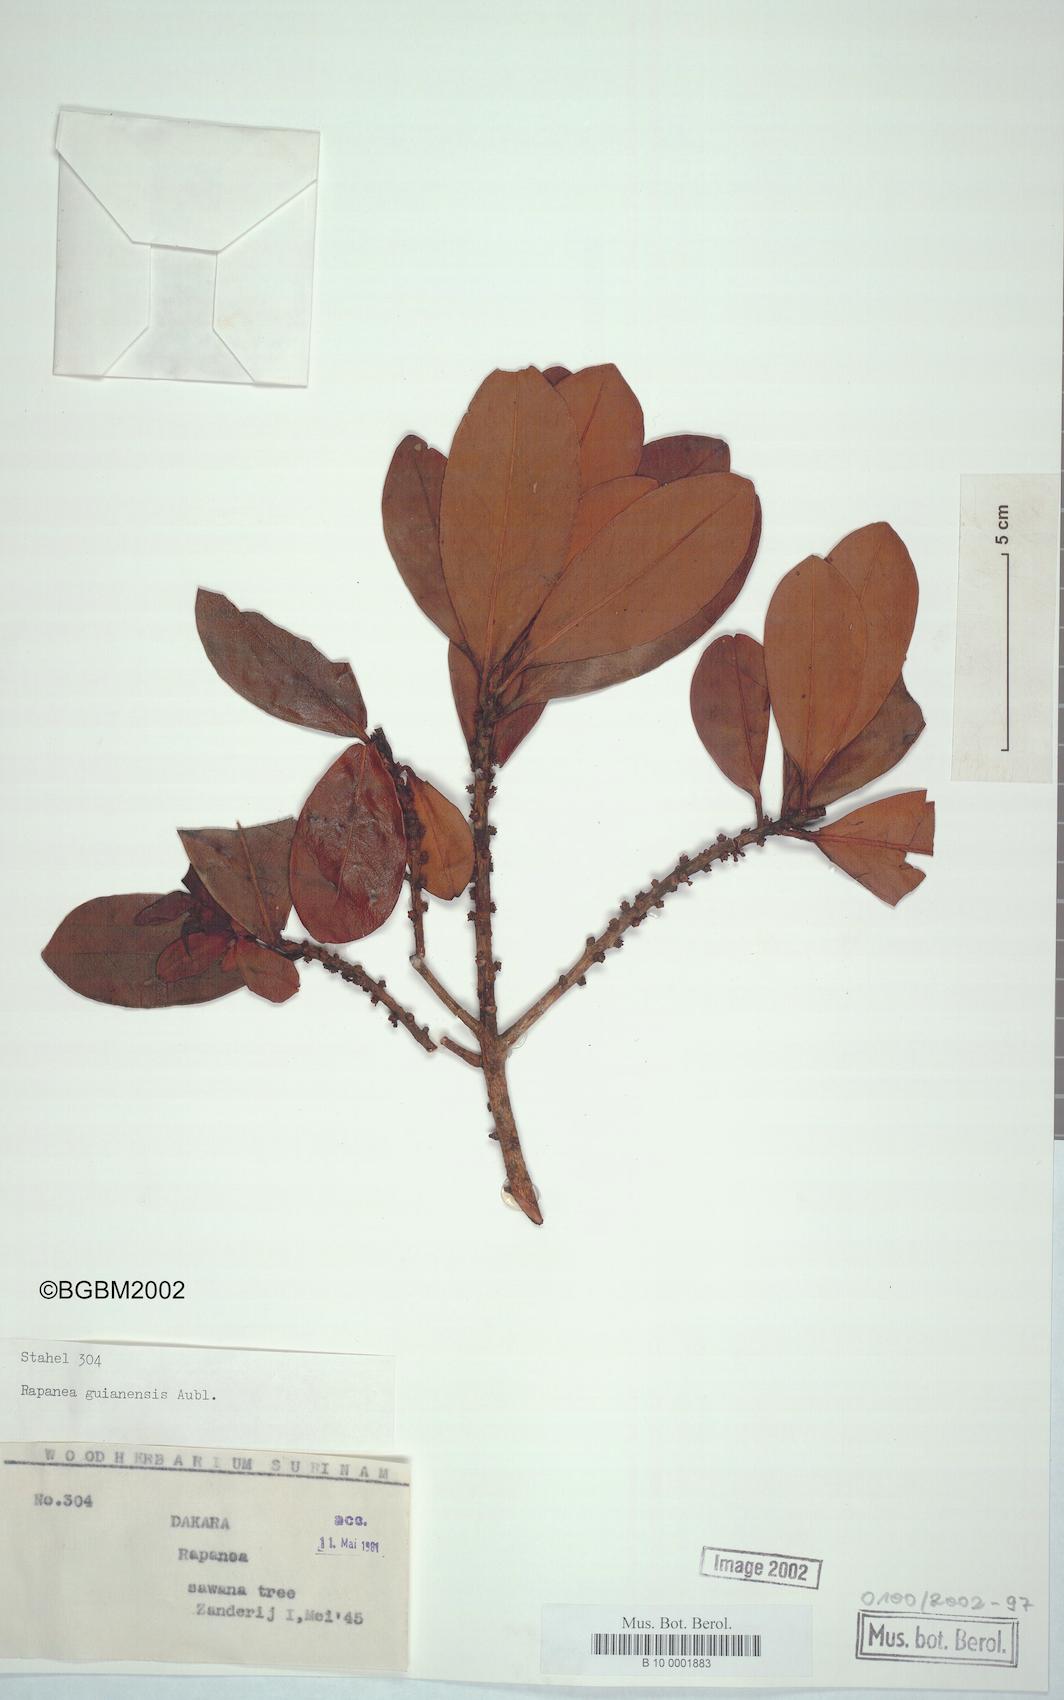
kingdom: Plantae
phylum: Tracheophyta
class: Magnoliopsida
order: Ericales
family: Primulaceae
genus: Myrsine
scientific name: Myrsine guianensis
